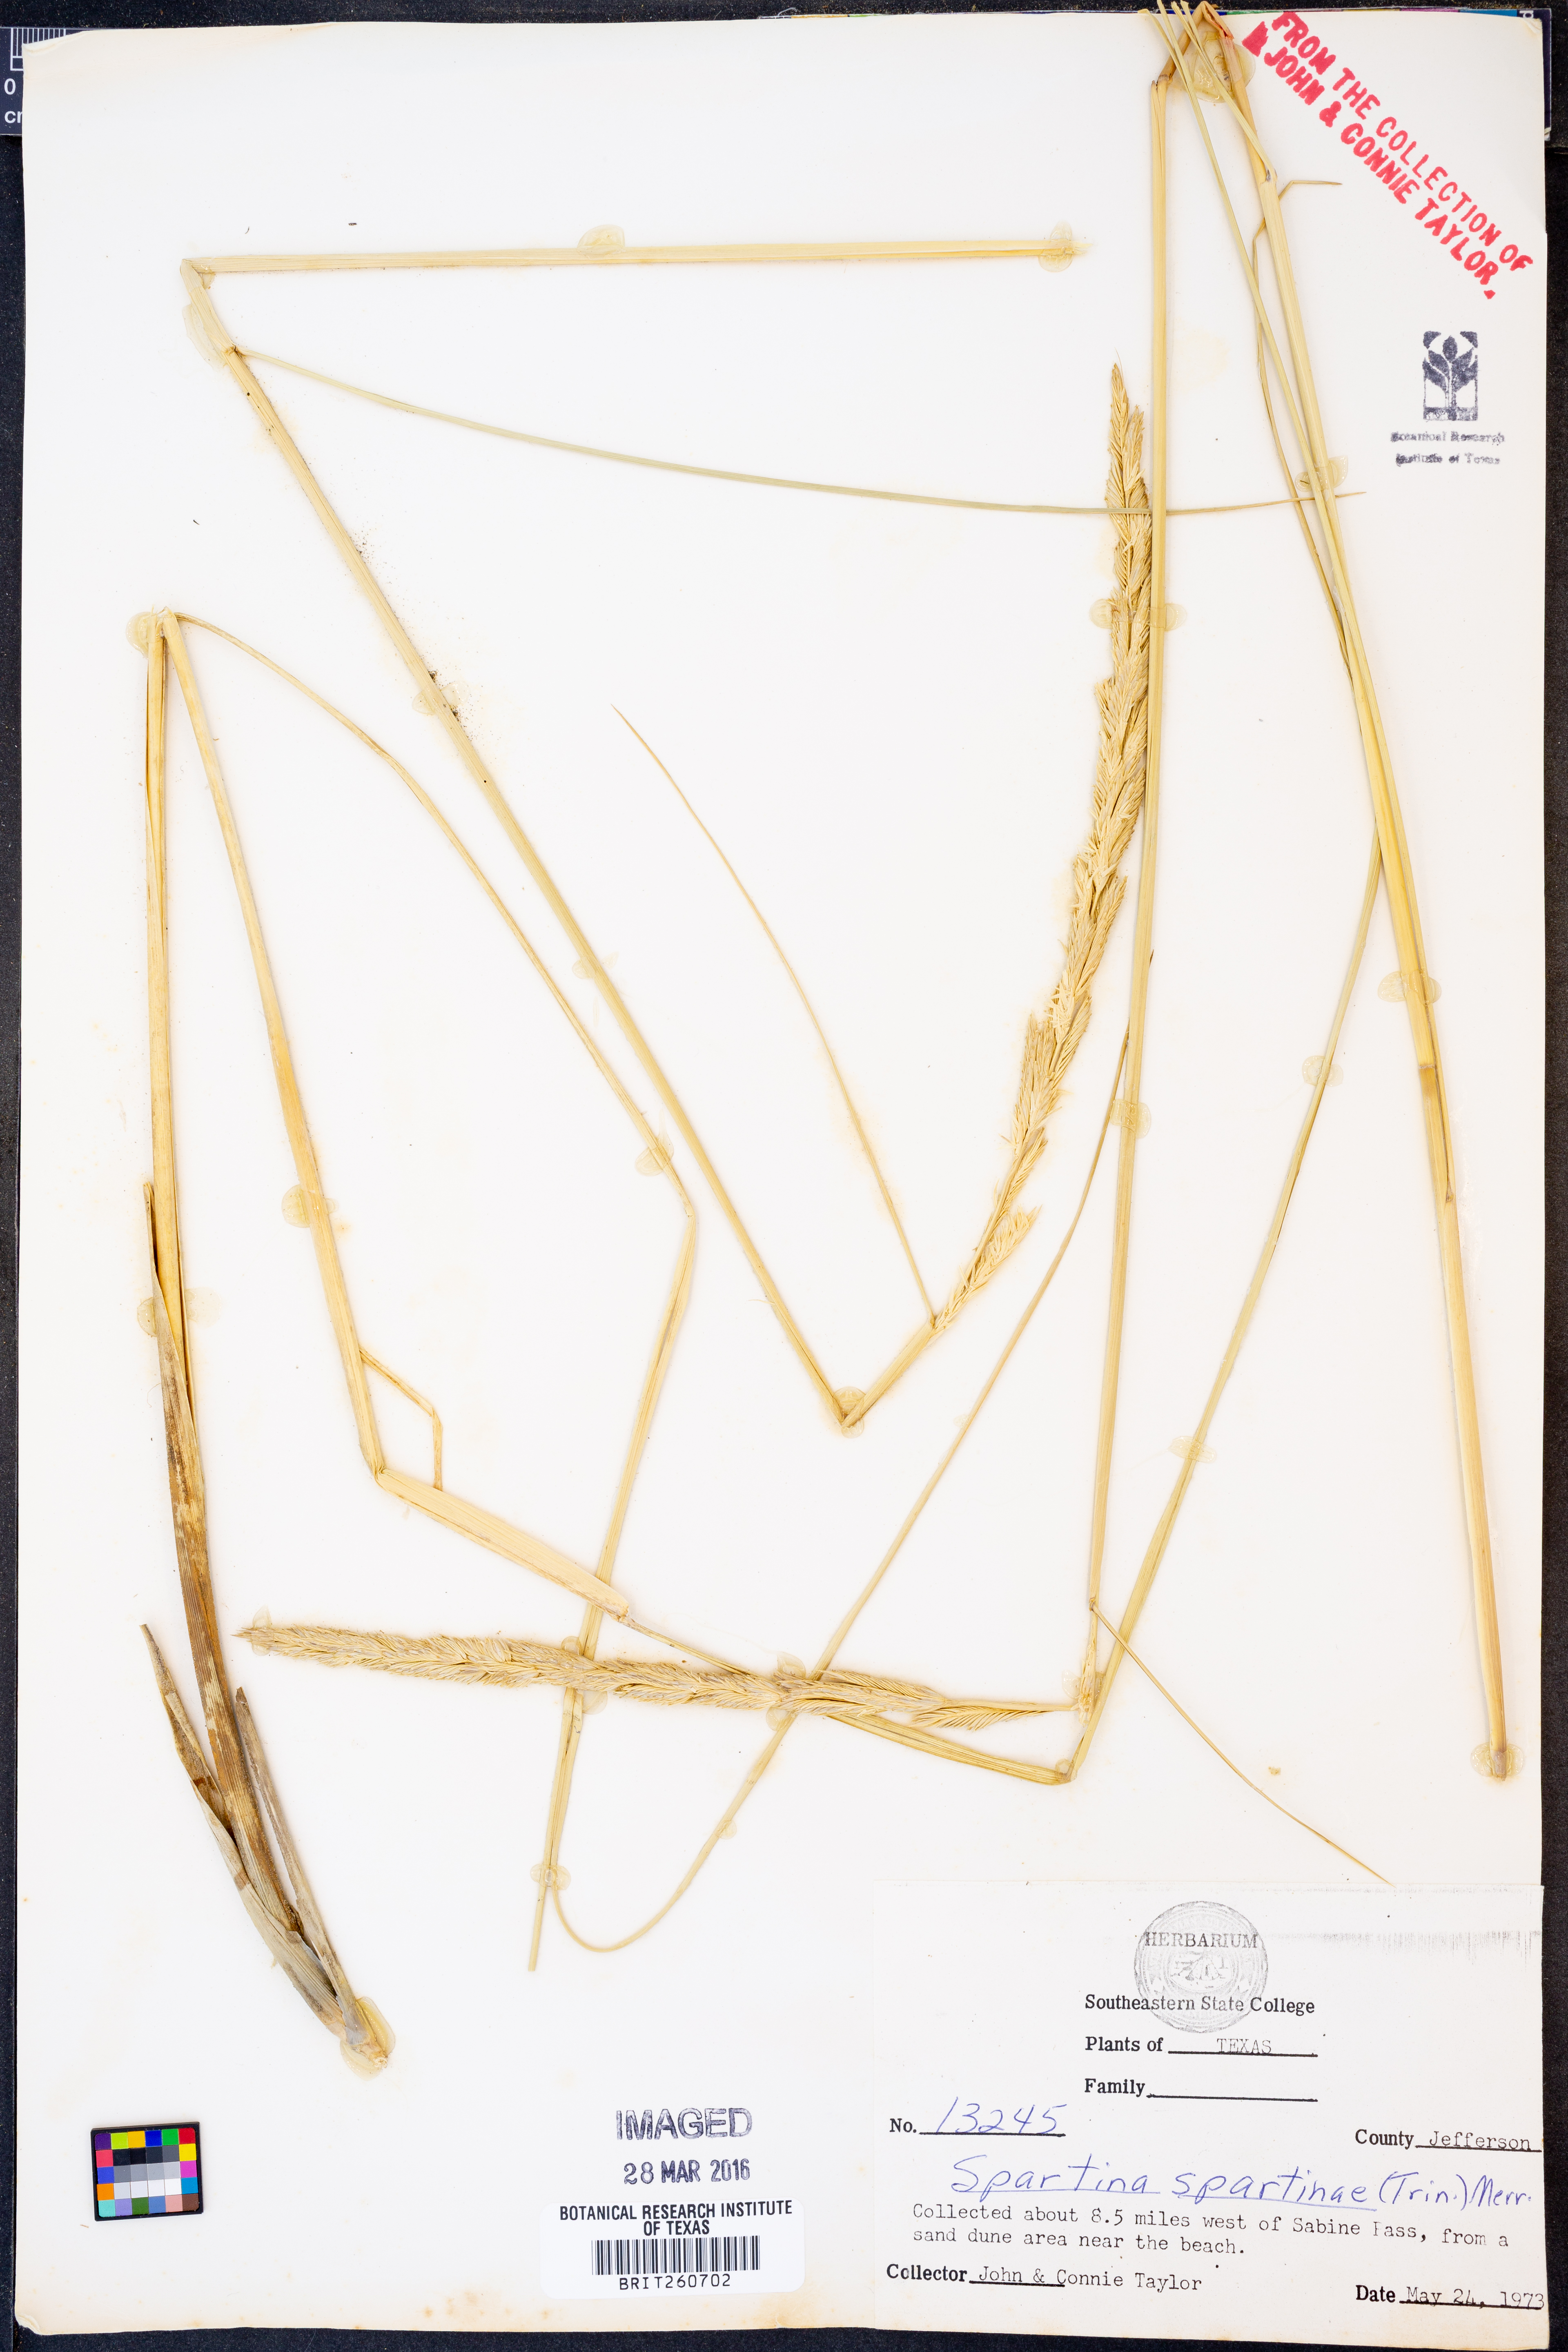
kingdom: Plantae
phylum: Tracheophyta
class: Liliopsida
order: Poales
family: Poaceae
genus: Sporobolus
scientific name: Sporobolus spartinae
